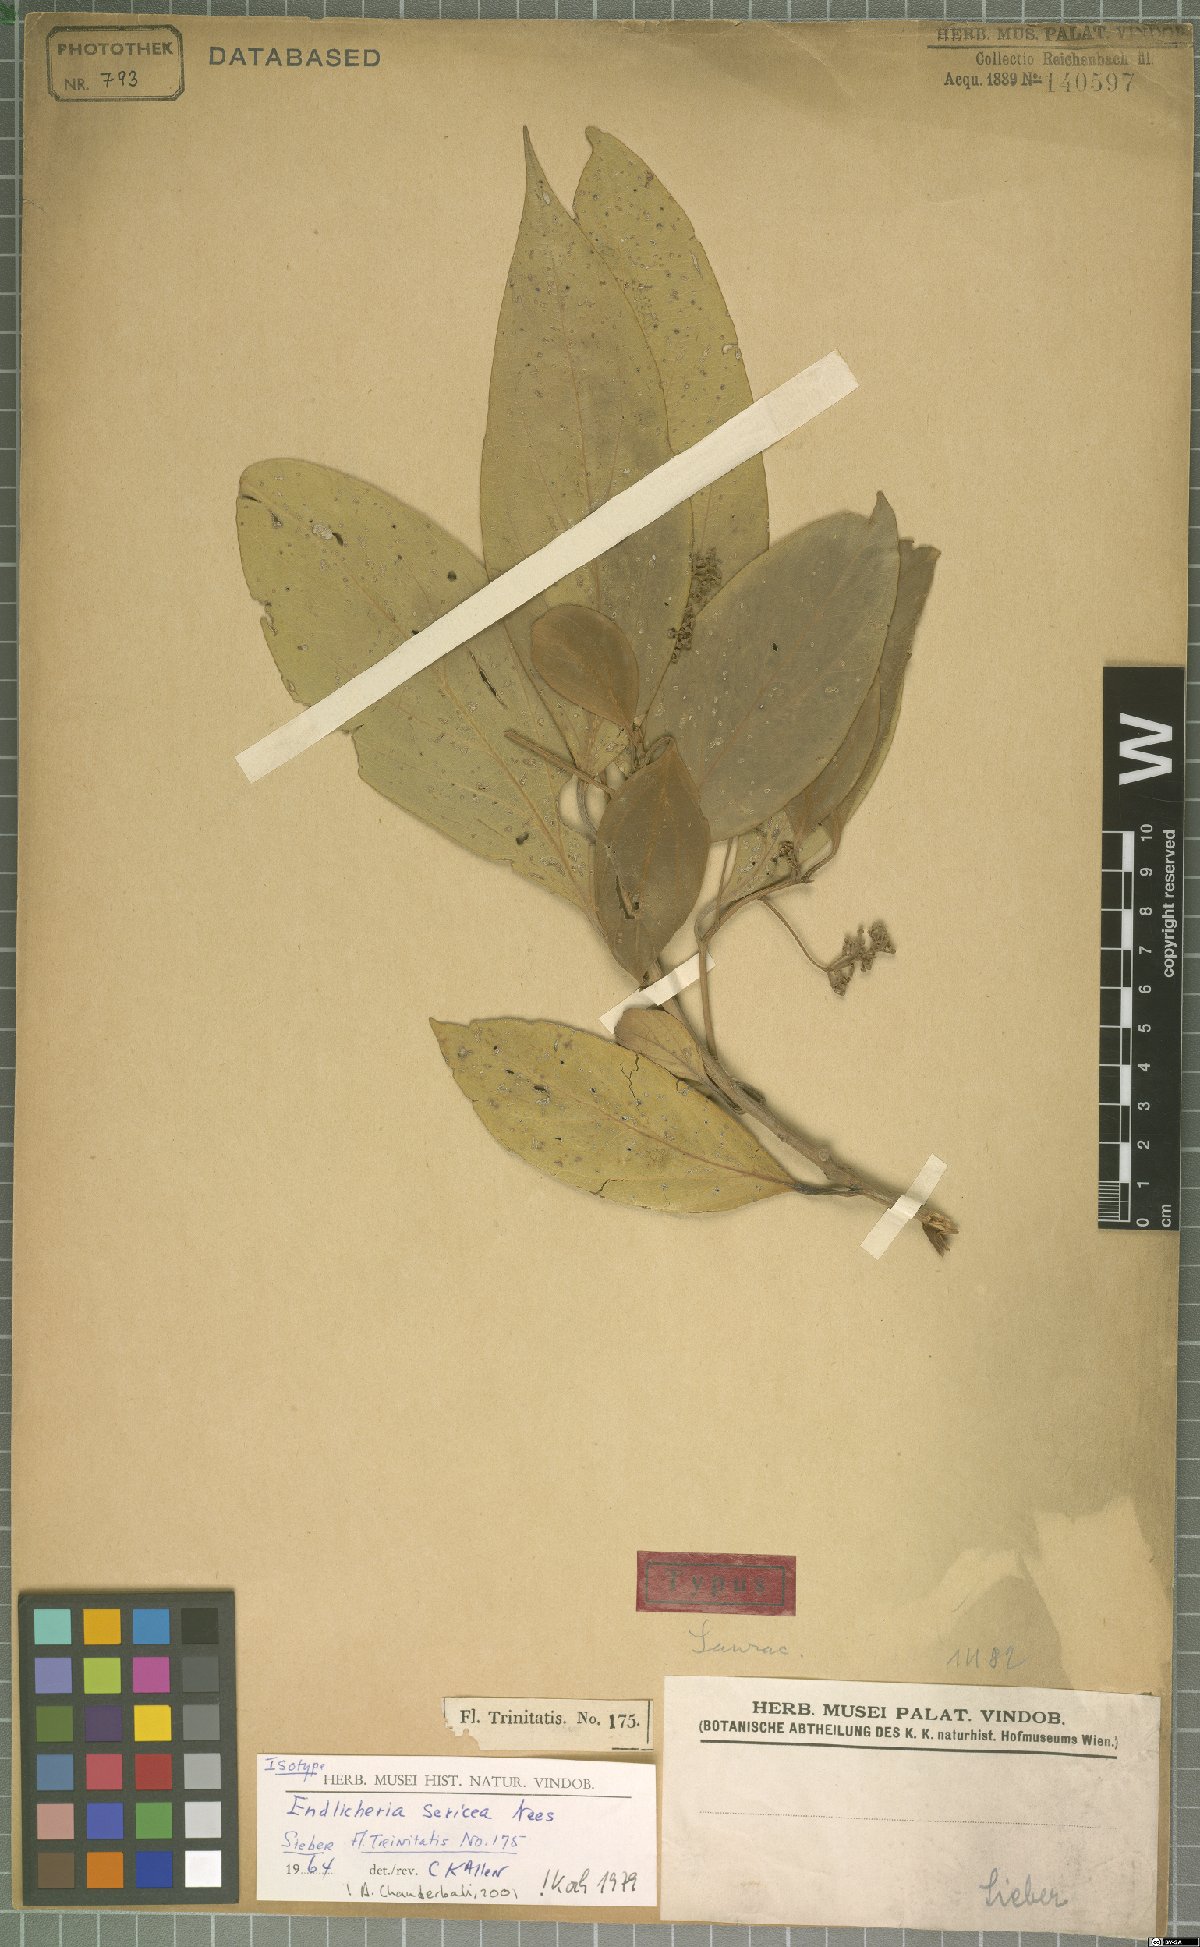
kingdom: Plantae
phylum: Tracheophyta
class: Magnoliopsida
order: Laurales
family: Lauraceae
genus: Endlicheria
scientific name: Endlicheria sericea
